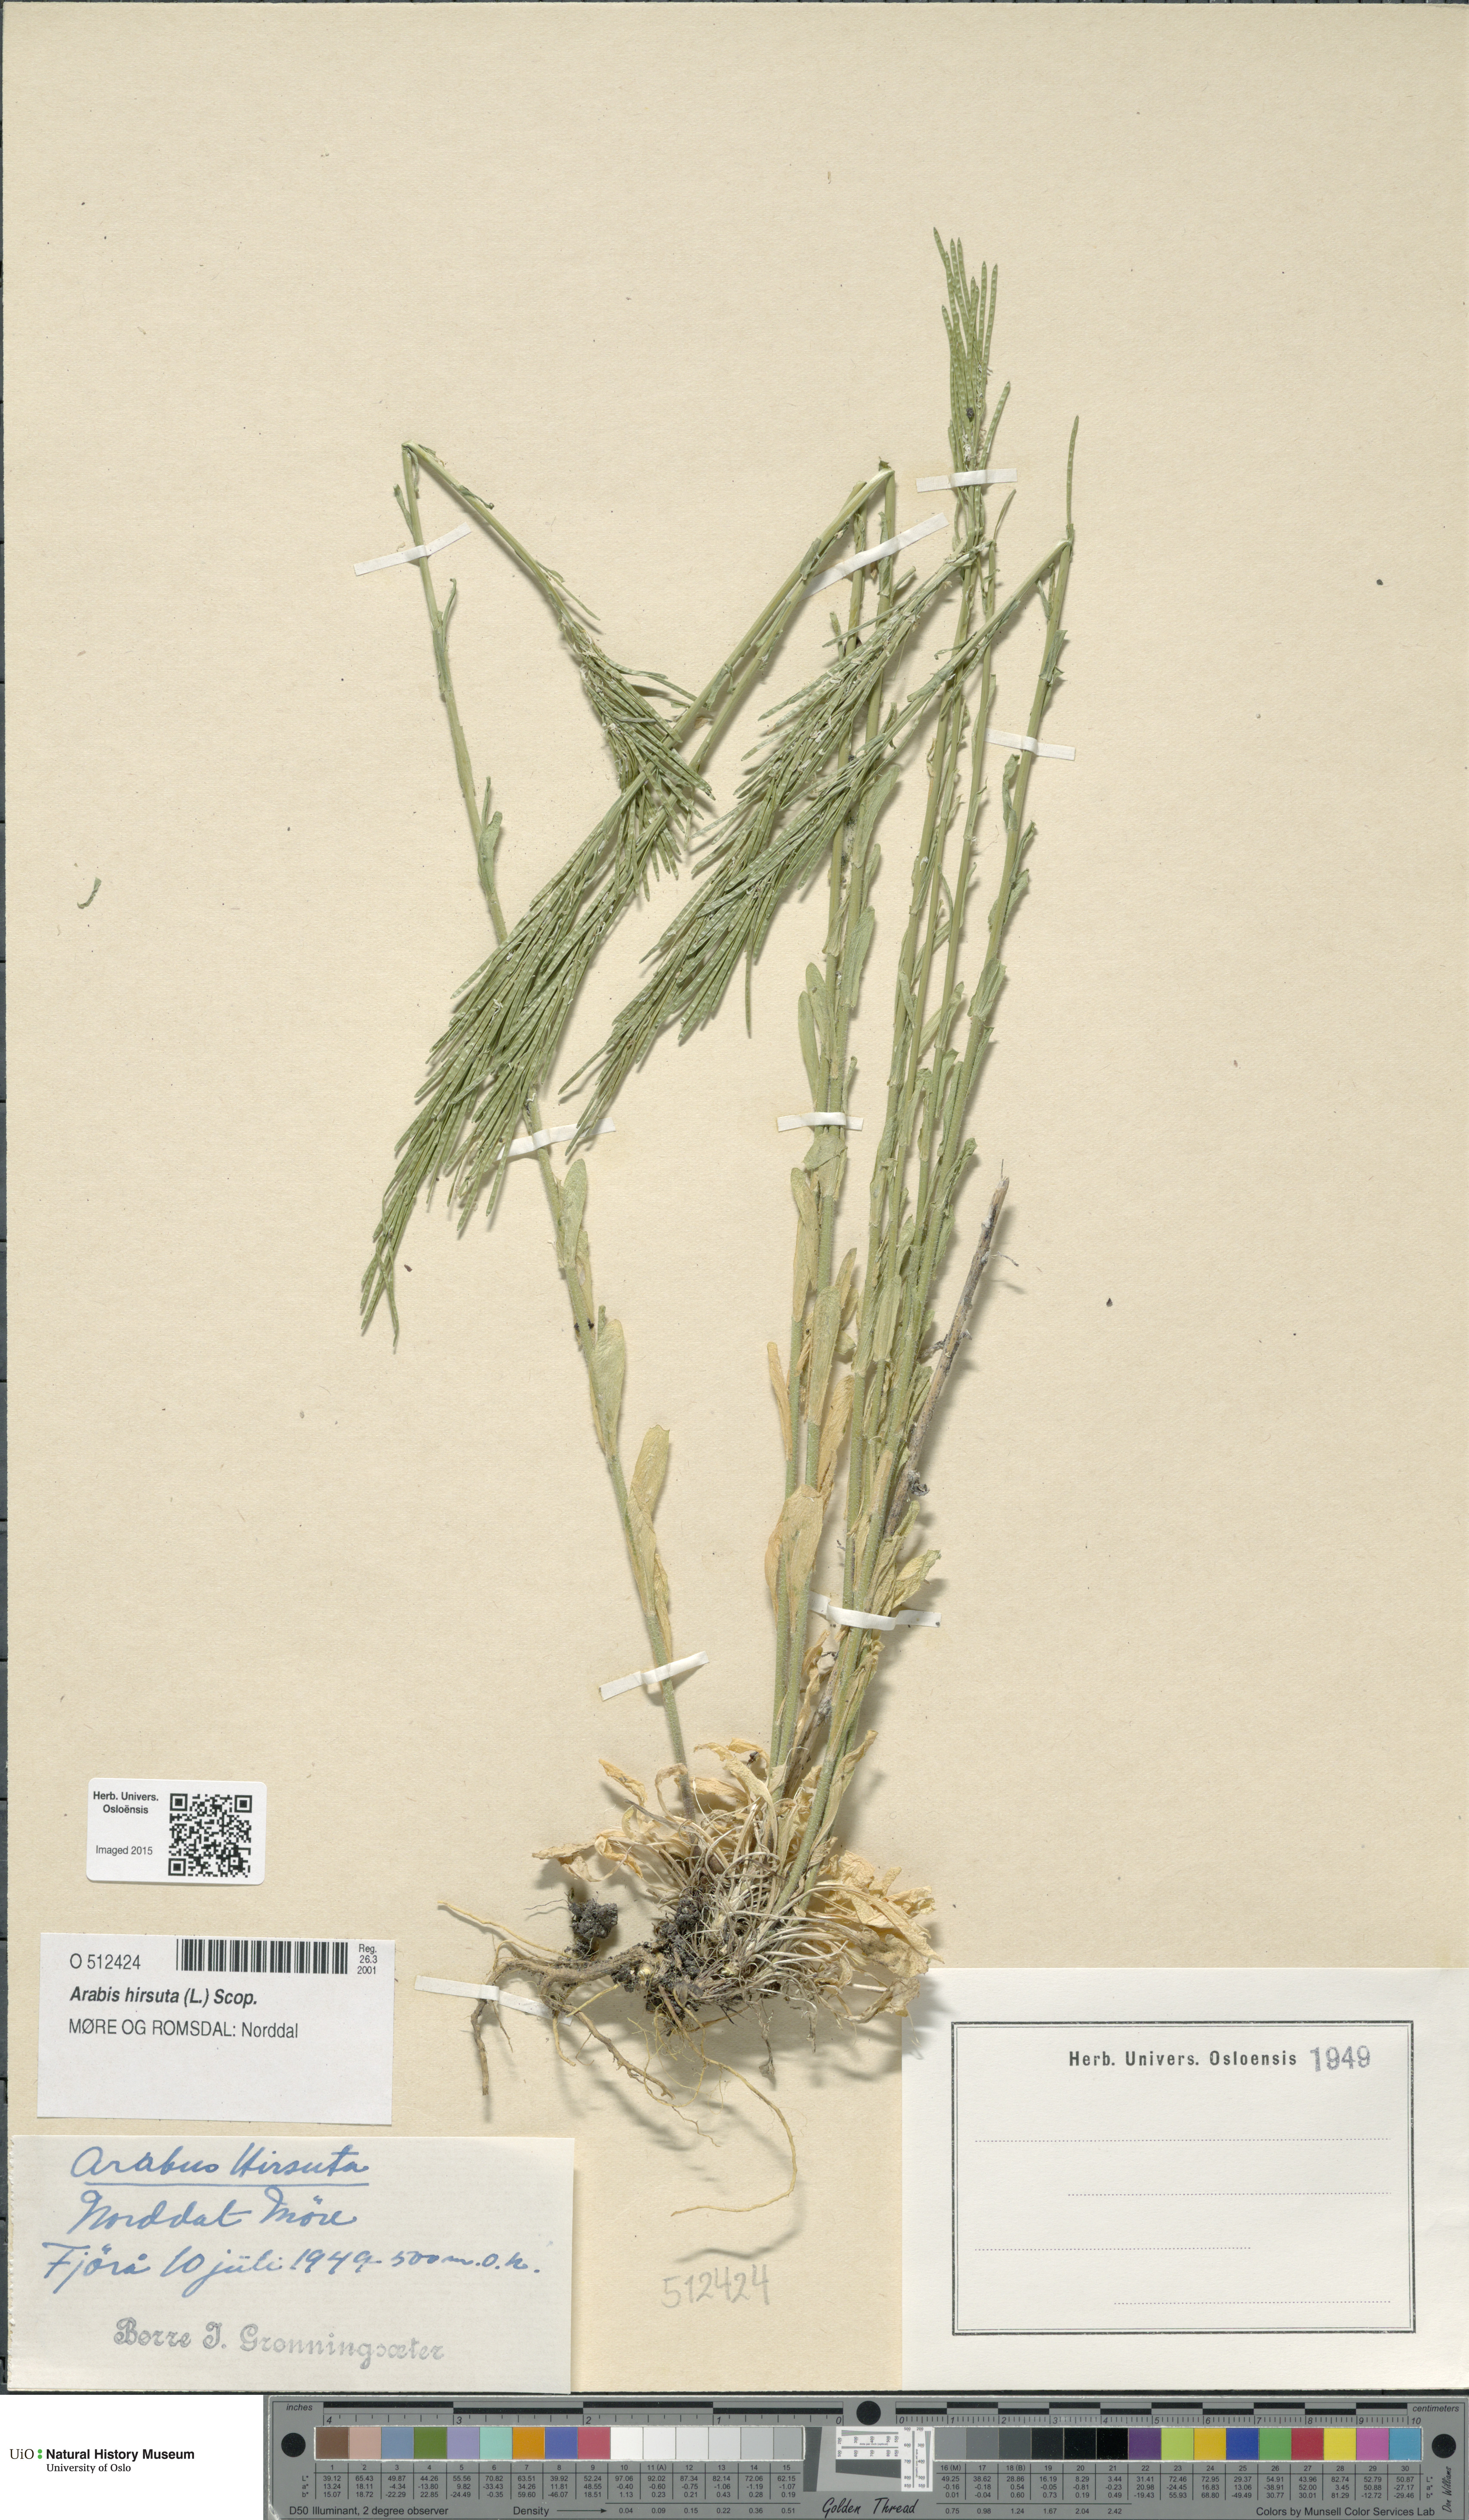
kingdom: Plantae
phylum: Tracheophyta
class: Magnoliopsida
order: Brassicales
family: Brassicaceae
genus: Arabis
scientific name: Arabis hirsuta
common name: Hairy rock-cress
